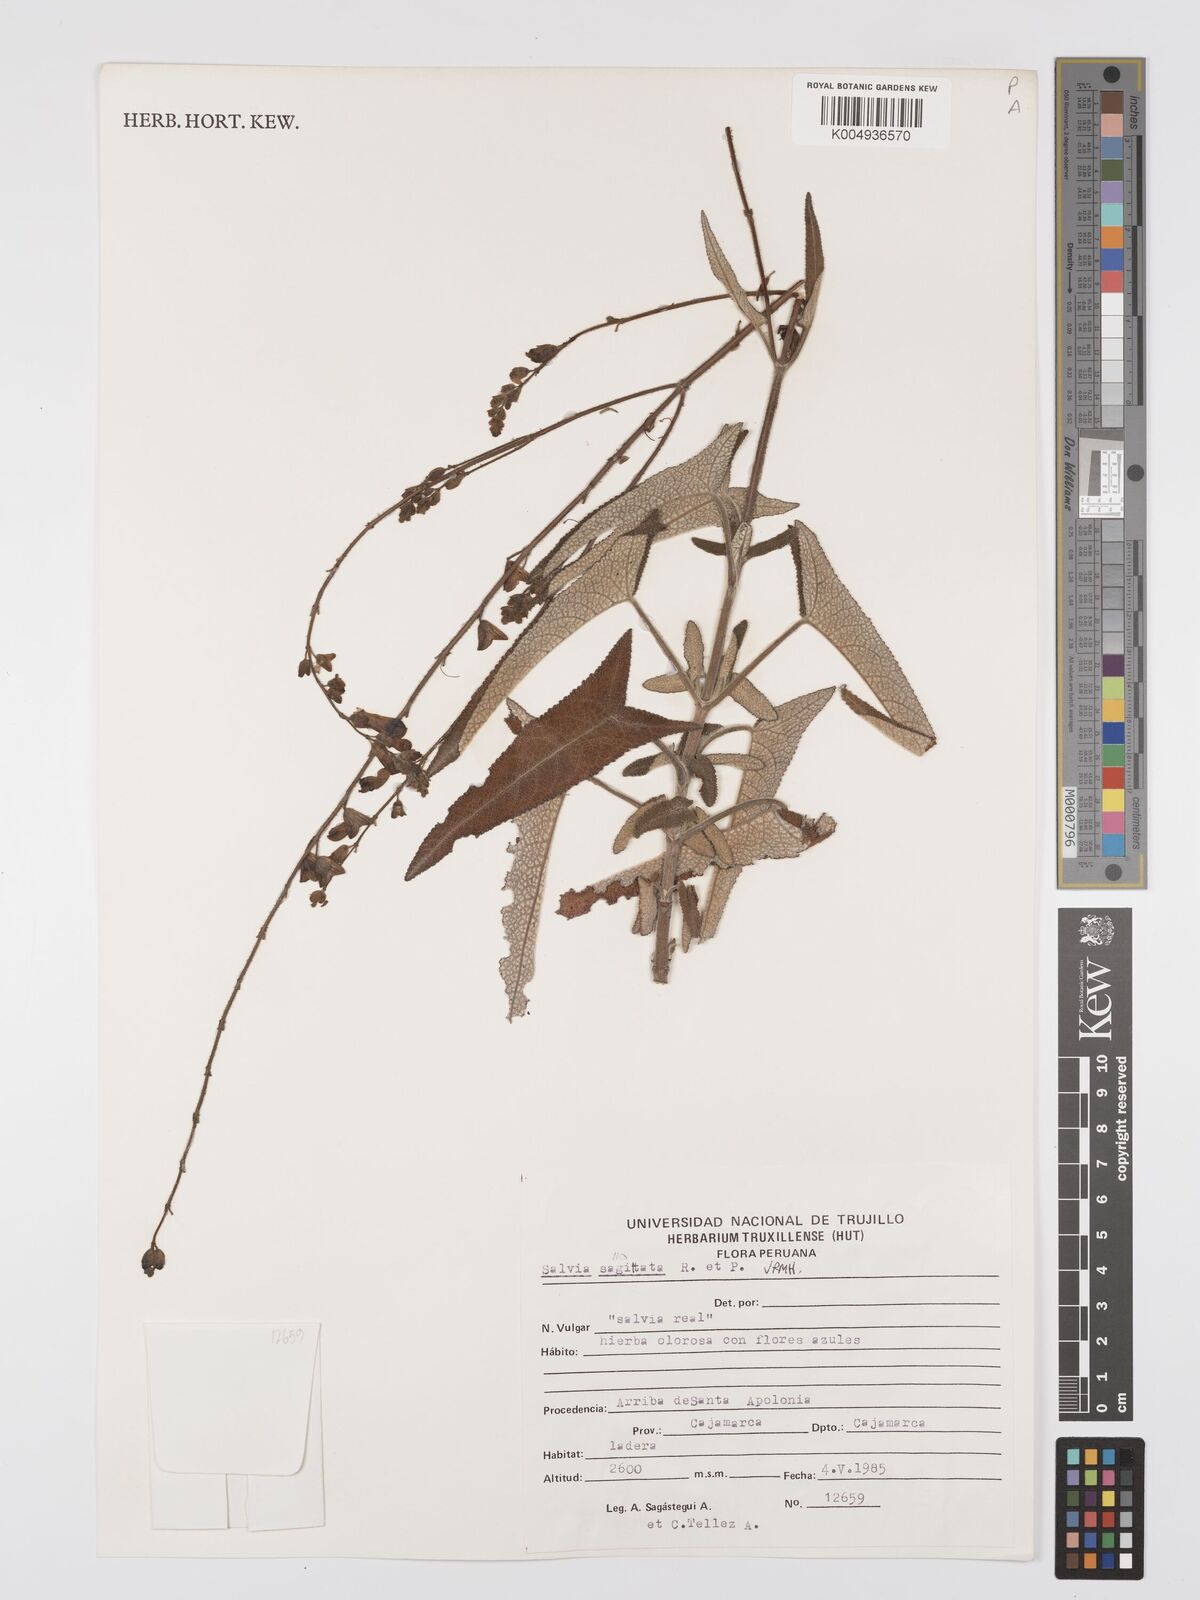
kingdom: Plantae
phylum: Tracheophyta
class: Magnoliopsida
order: Lamiales
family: Lamiaceae
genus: Salvia
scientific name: Salvia sagittata
